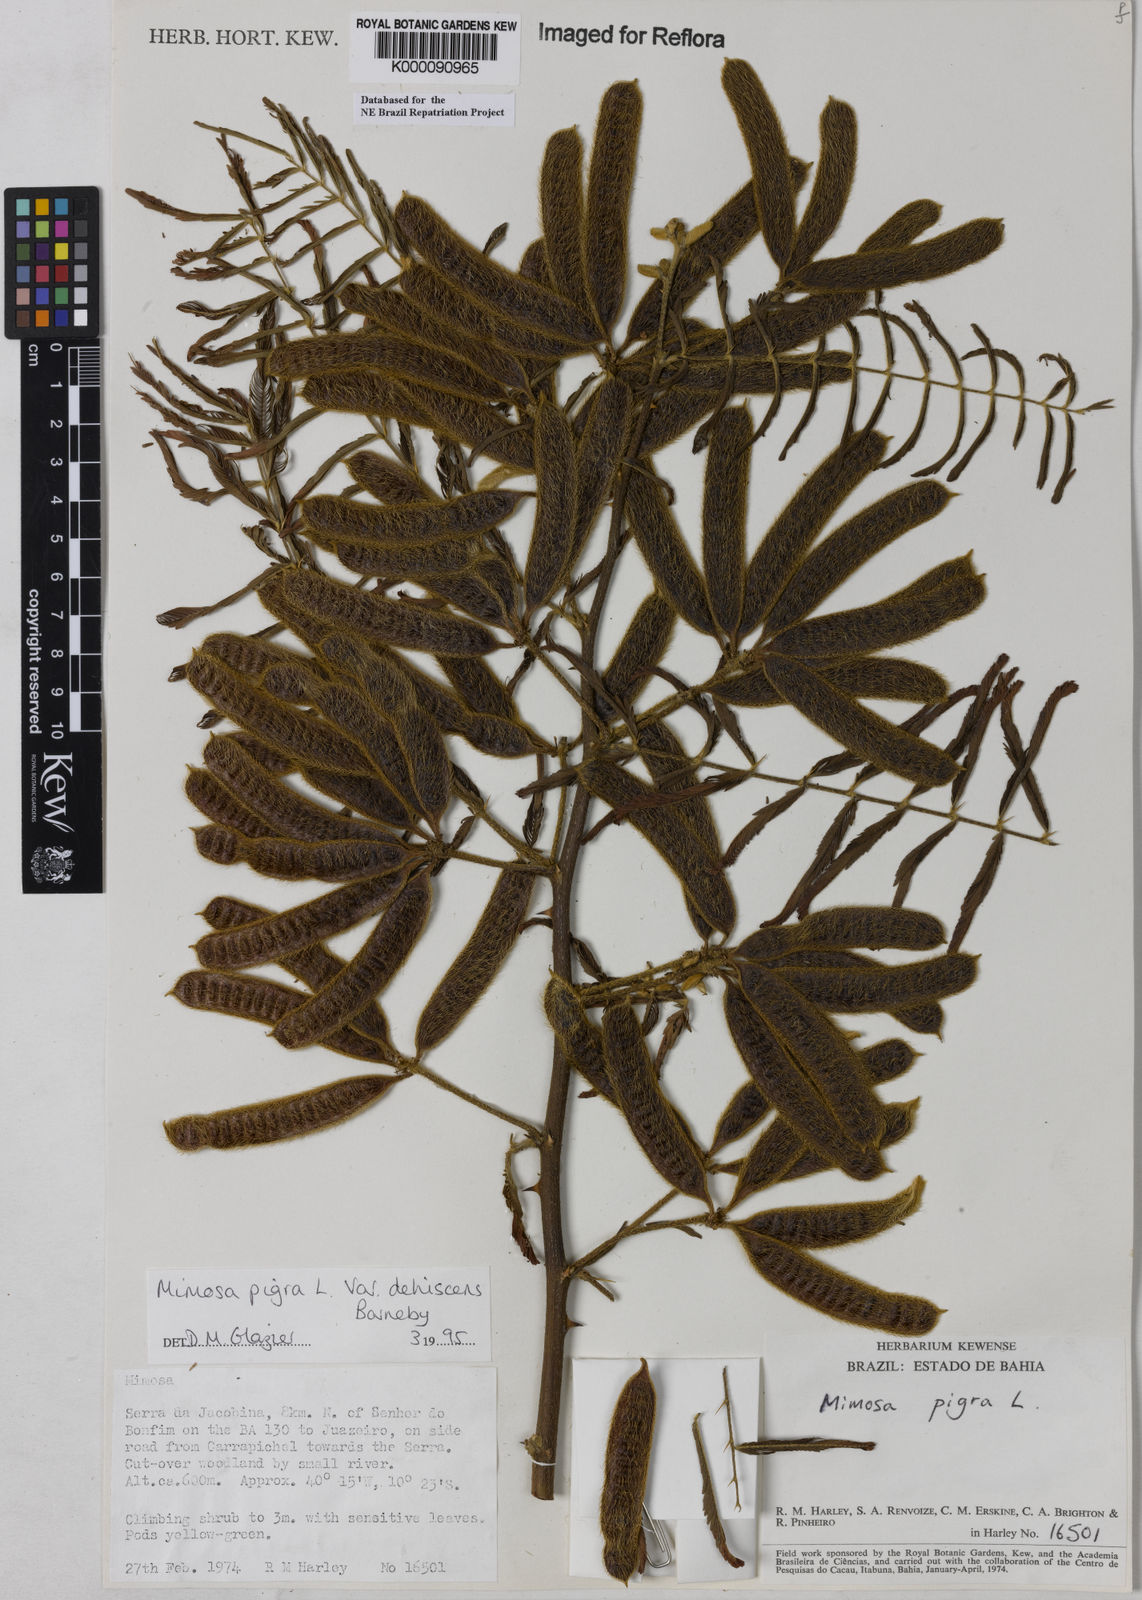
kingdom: Plantae
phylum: Tracheophyta
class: Magnoliopsida
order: Fabales
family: Fabaceae
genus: Mimosa
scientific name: Mimosa pigra
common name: Black mimosa
